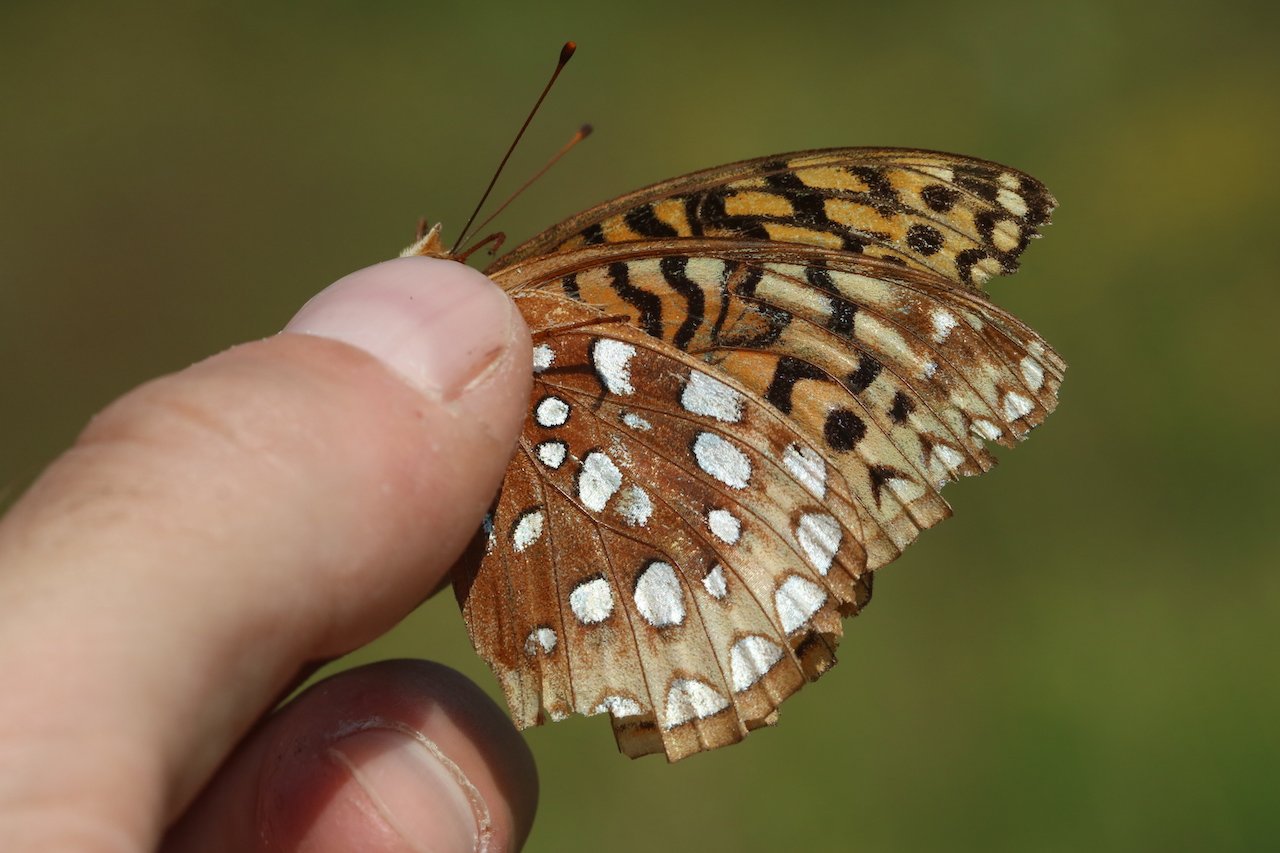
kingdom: Animalia
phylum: Arthropoda
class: Insecta
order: Lepidoptera
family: Nymphalidae
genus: Speyeria
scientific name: Speyeria cybele
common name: Great Spangled Fritillary
